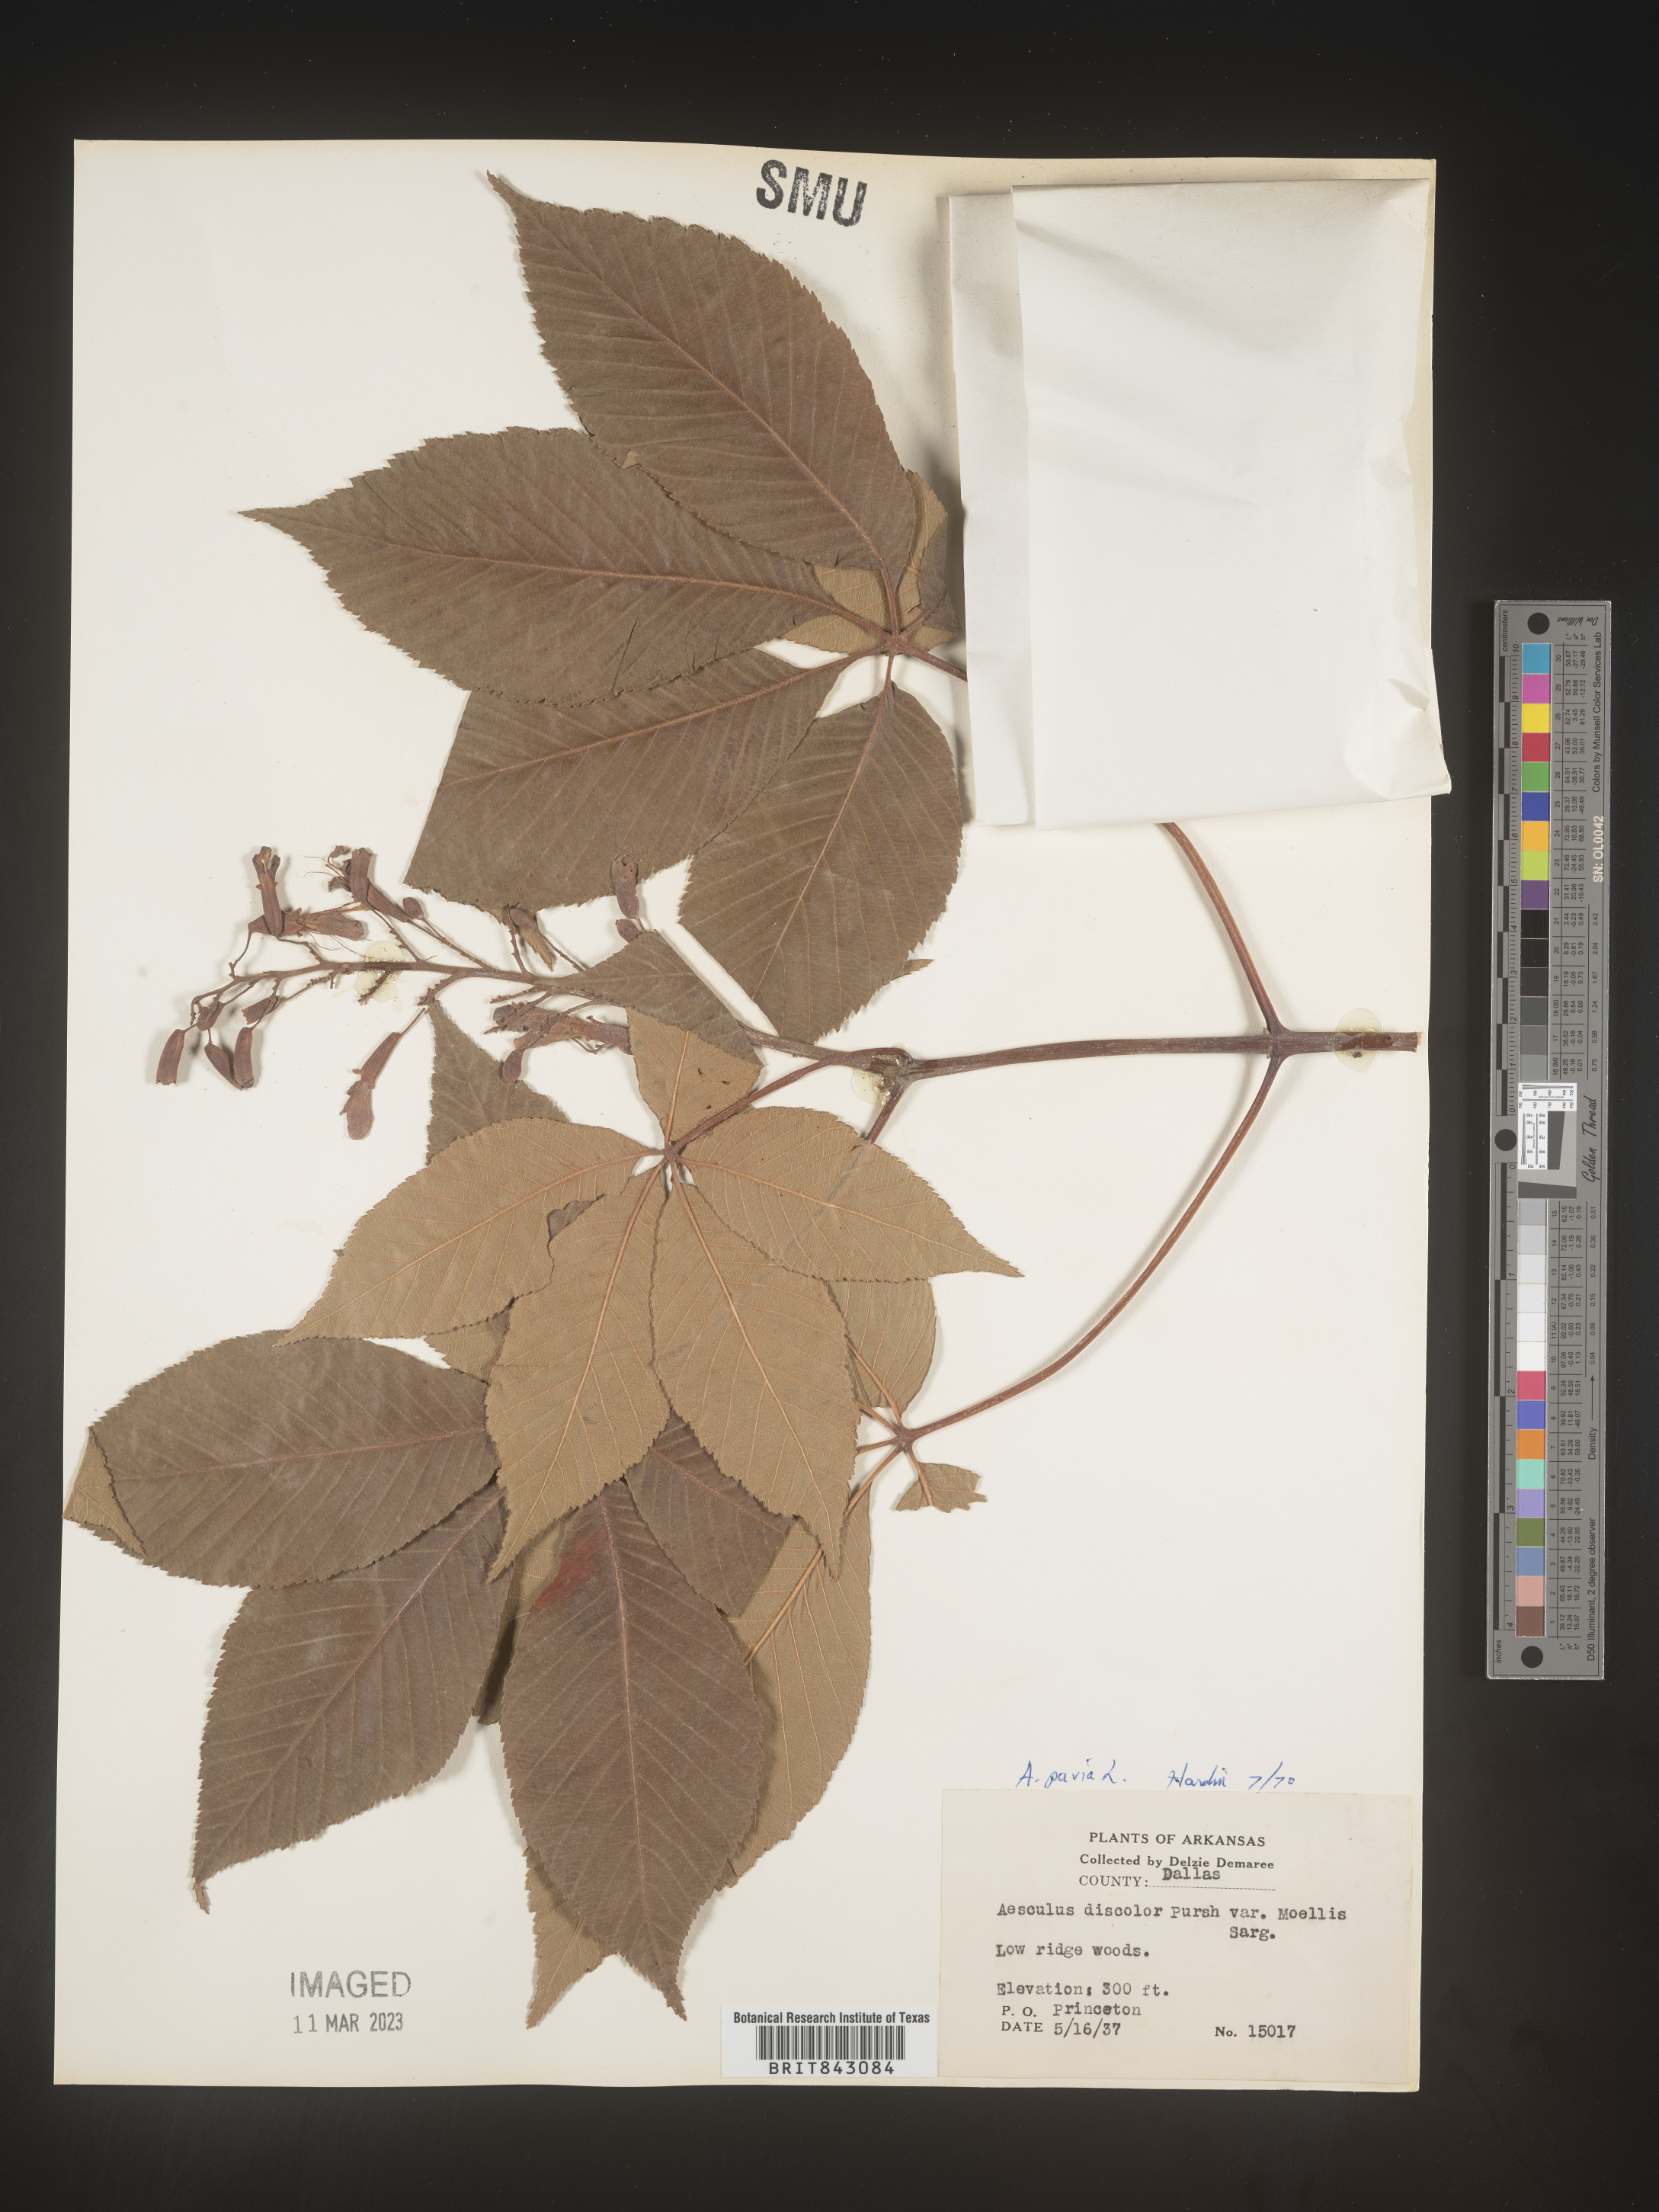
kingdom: Plantae
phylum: Tracheophyta
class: Magnoliopsida
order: Sapindales
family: Sapindaceae
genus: Aesculus
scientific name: Aesculus pavia
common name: Red buckeye
